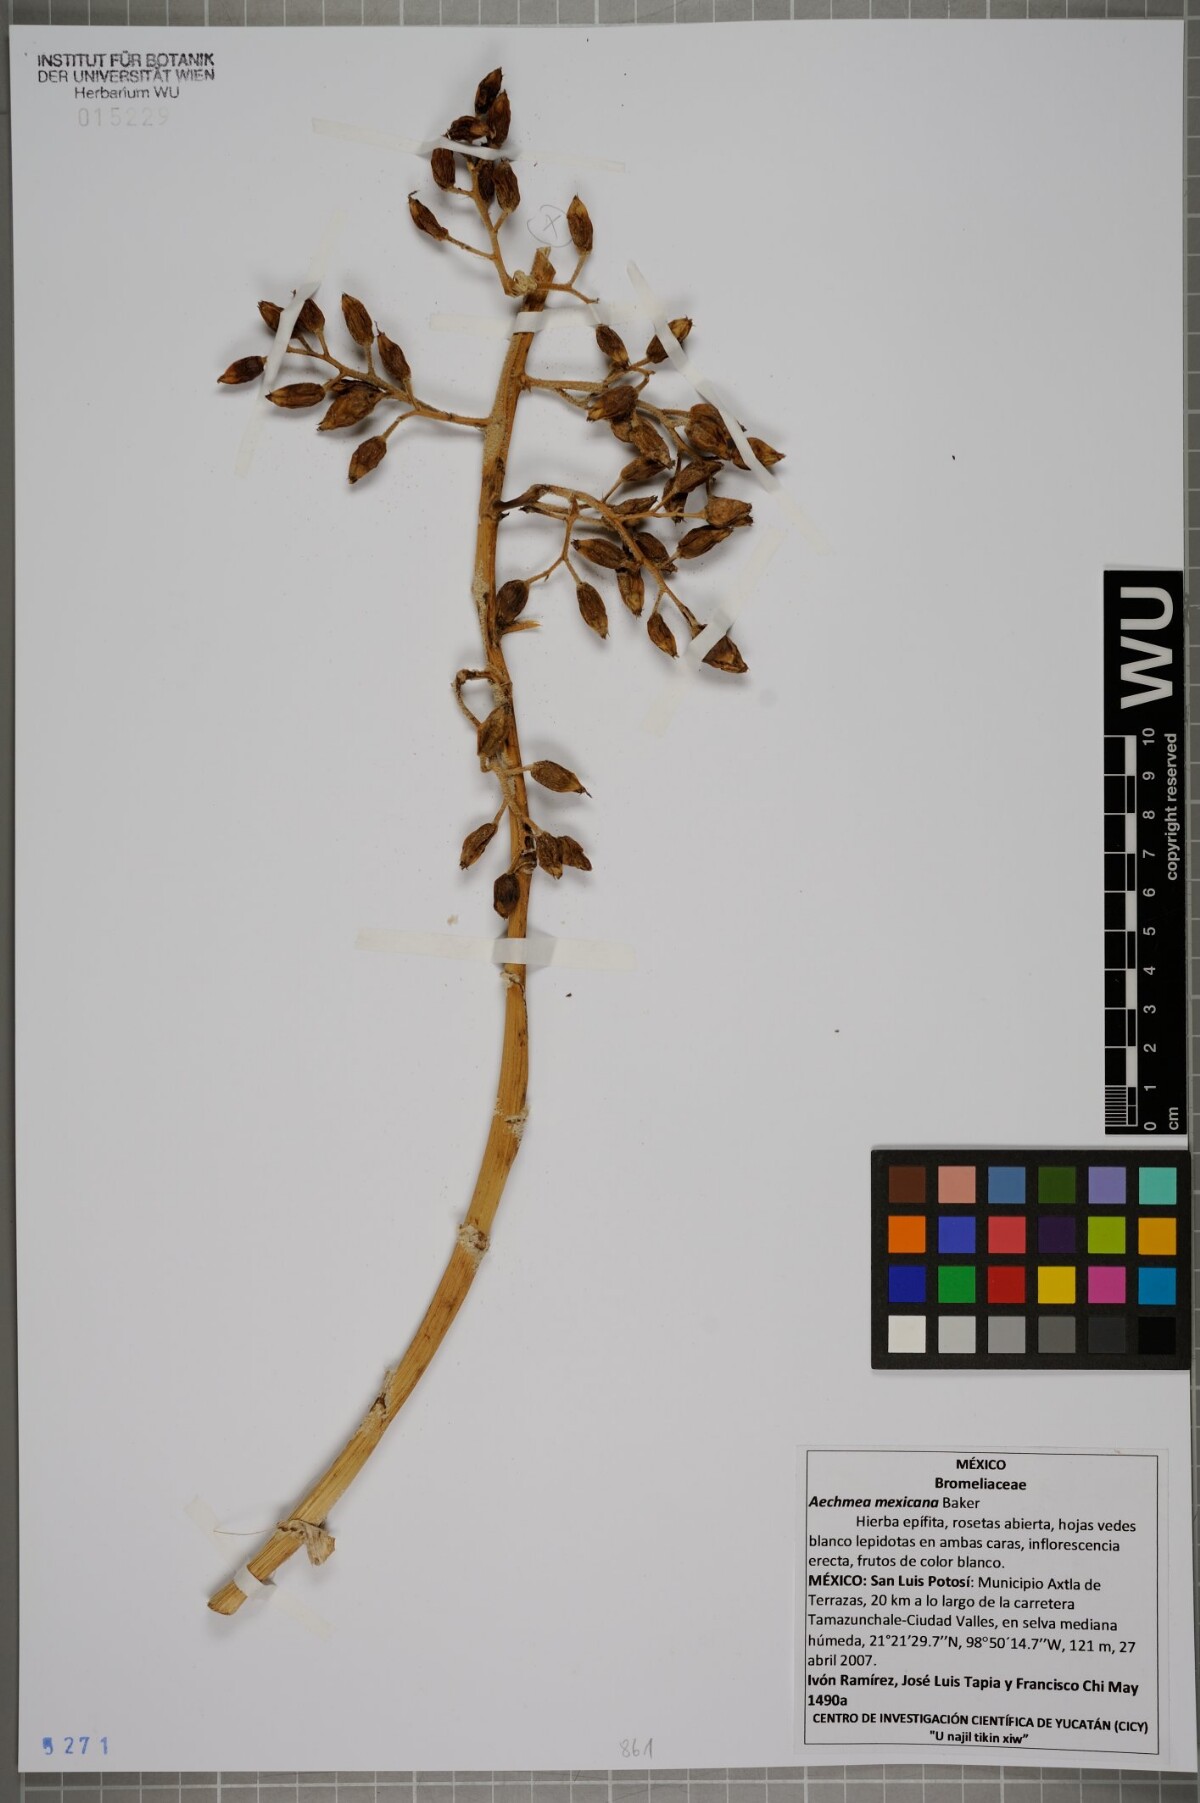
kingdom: Plantae
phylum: Tracheophyta
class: Liliopsida
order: Poales
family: Bromeliaceae
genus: Aechmea
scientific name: Aechmea mexicana
